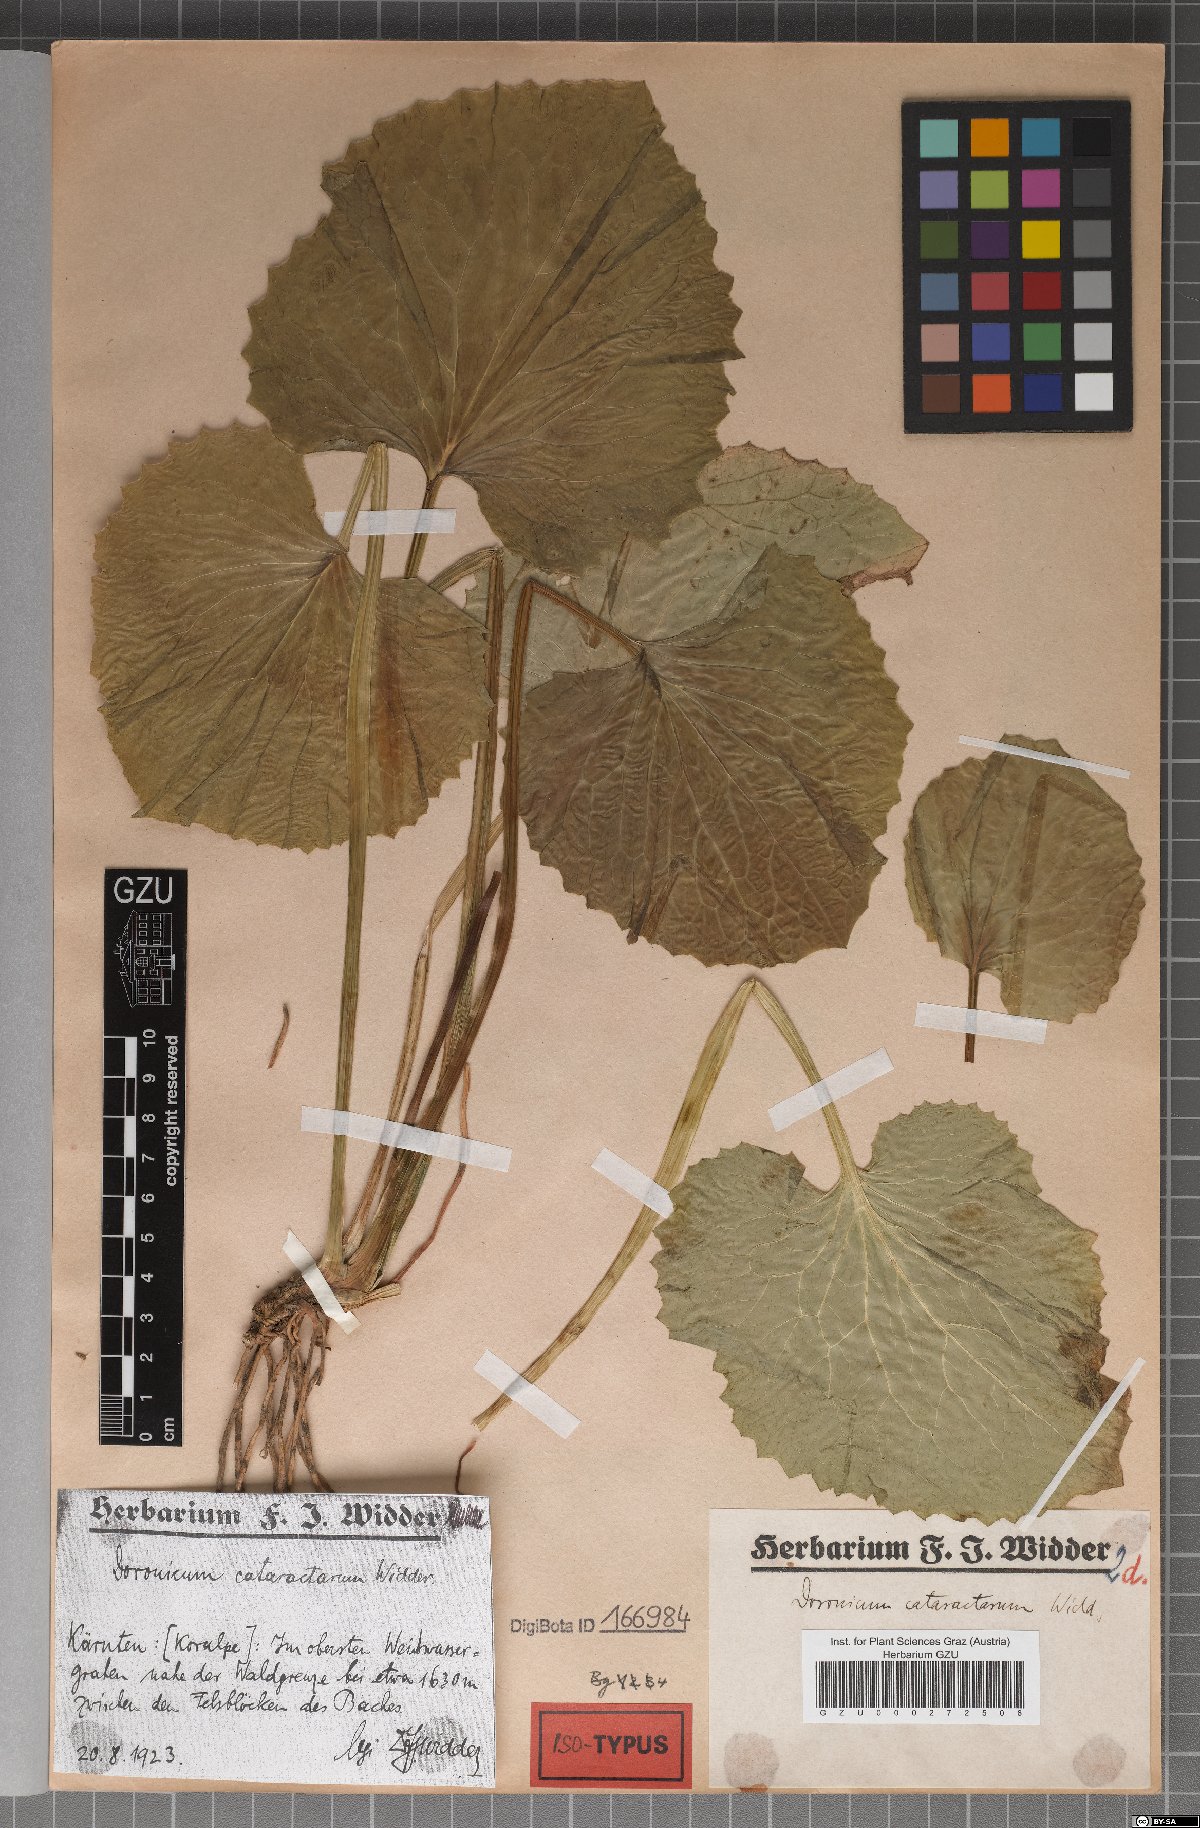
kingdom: Plantae
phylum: Tracheophyta
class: Magnoliopsida
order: Asterales
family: Asteraceae
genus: Doronicum
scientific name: Doronicum cataractarum
